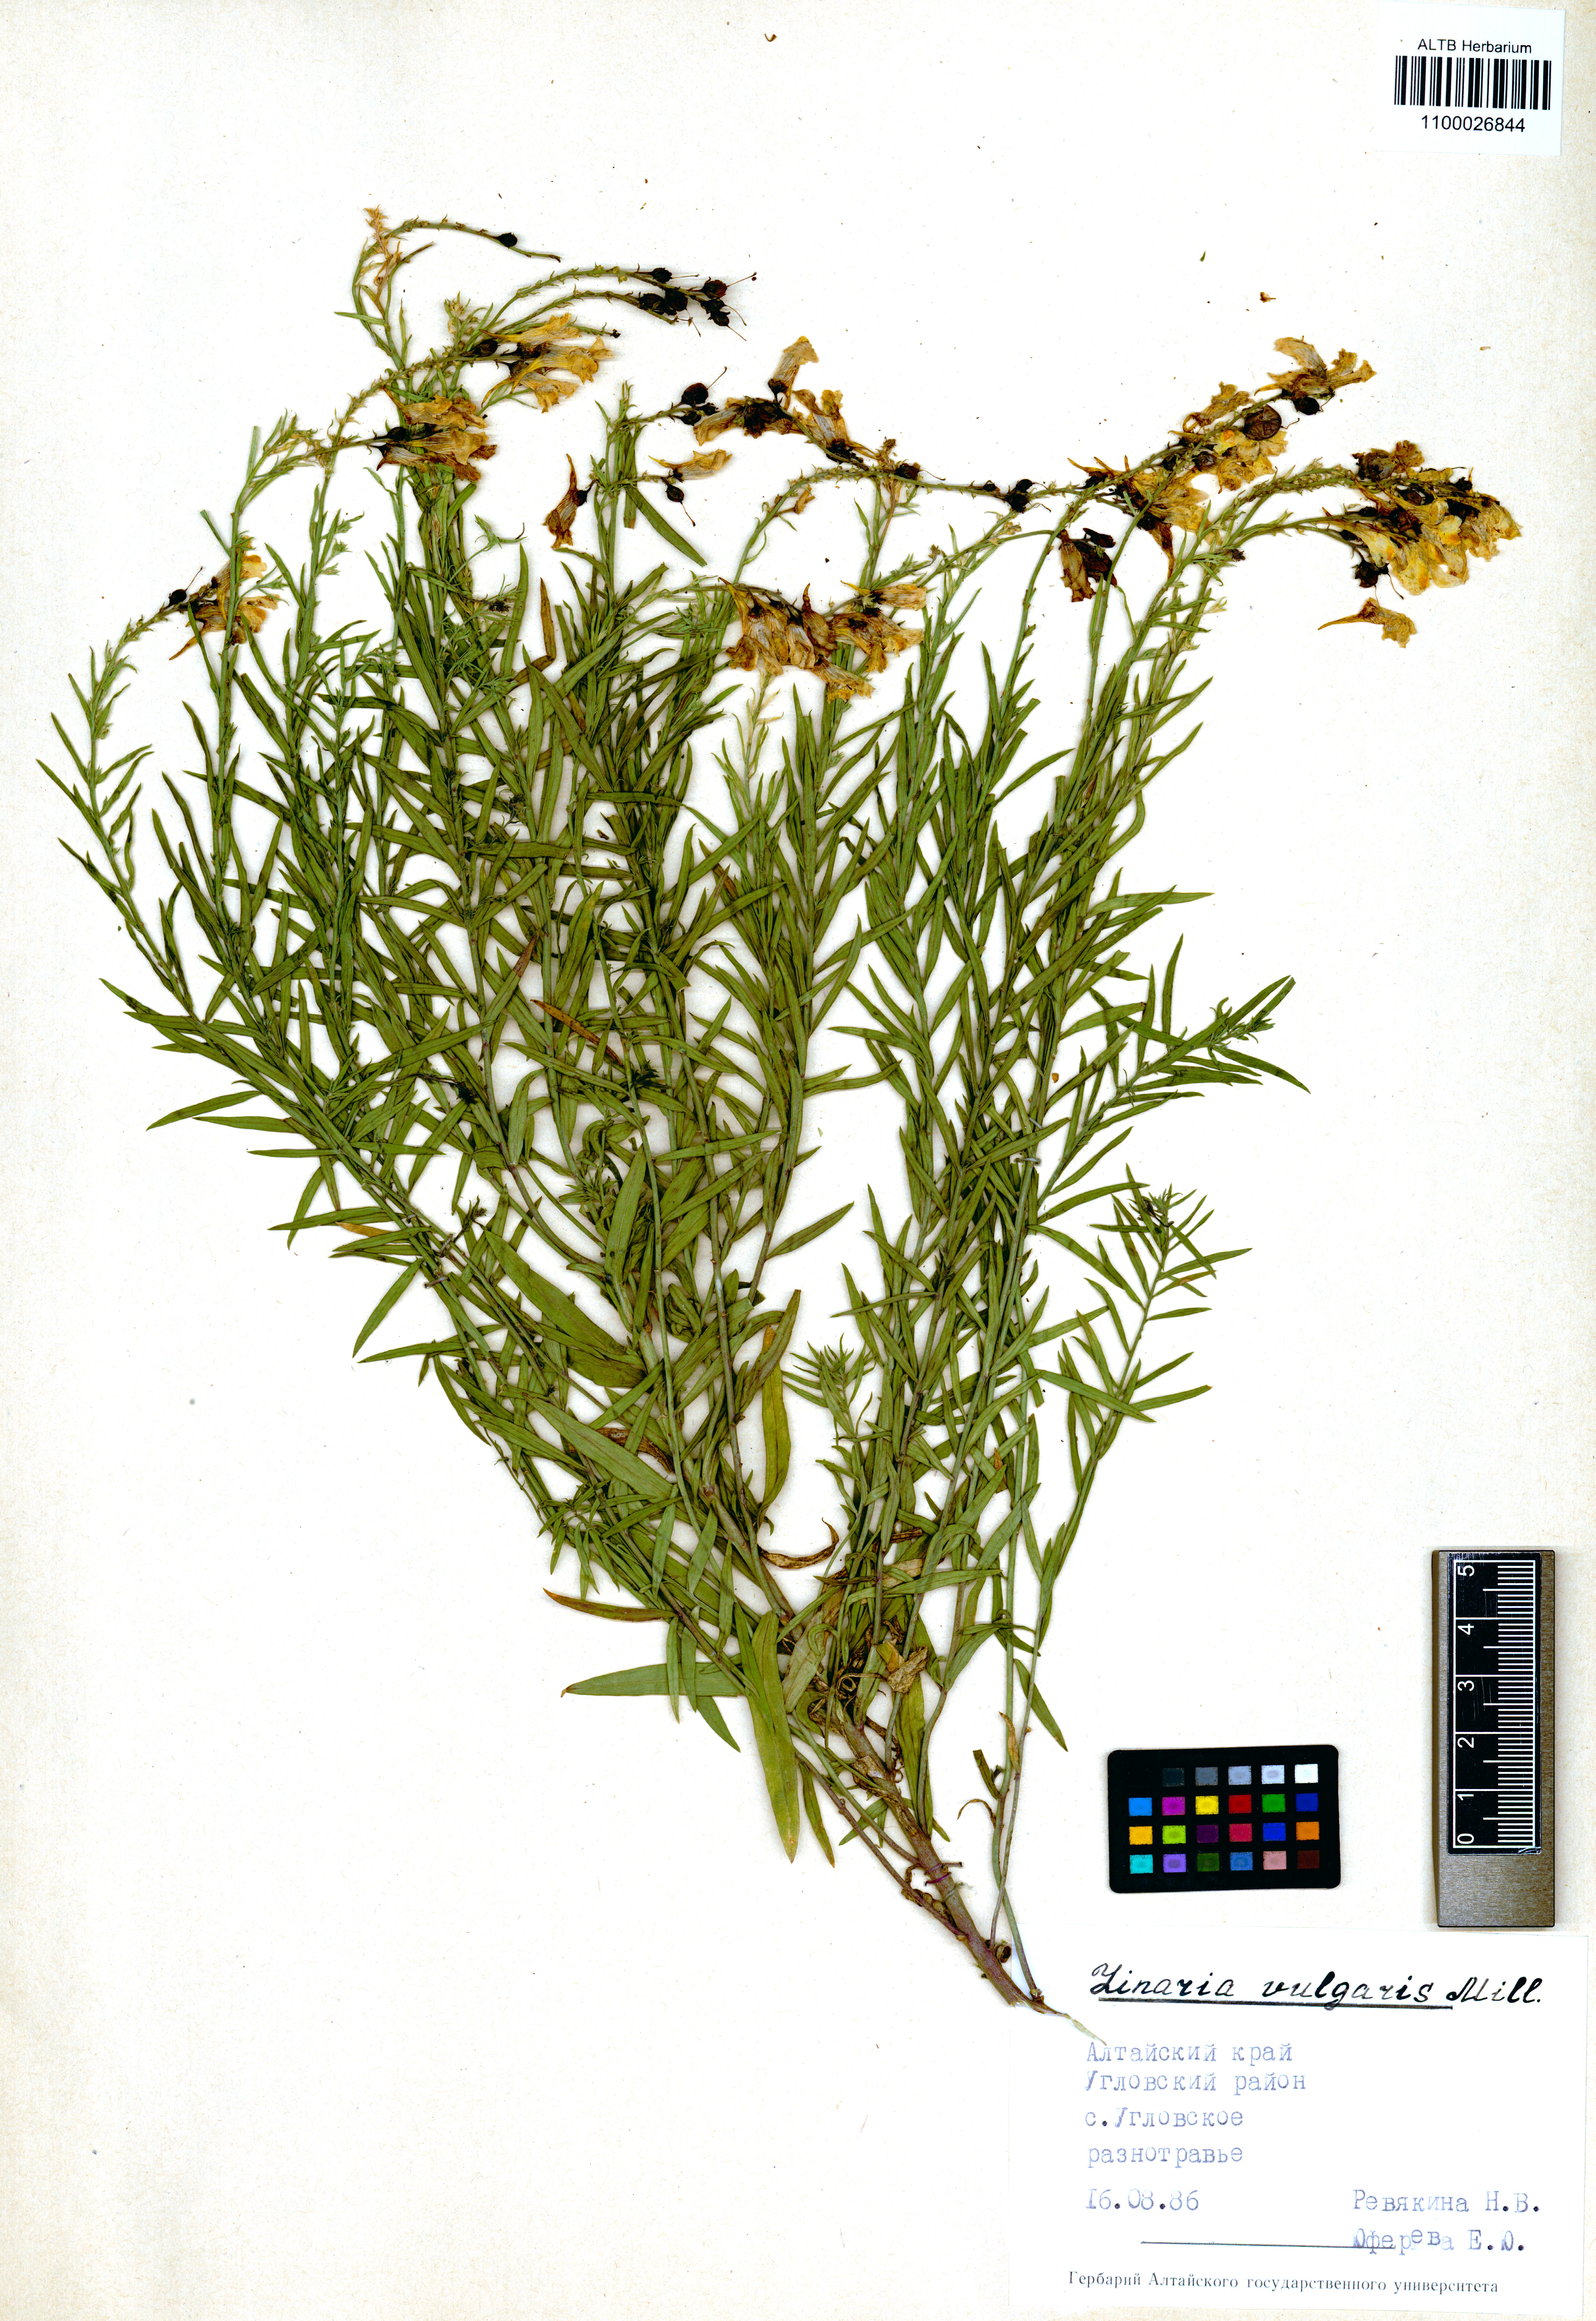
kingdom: Plantae
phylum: Tracheophyta
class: Magnoliopsida
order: Lamiales
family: Plantaginaceae
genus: Linaria
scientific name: Linaria vulgaris
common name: Butter and eggs
